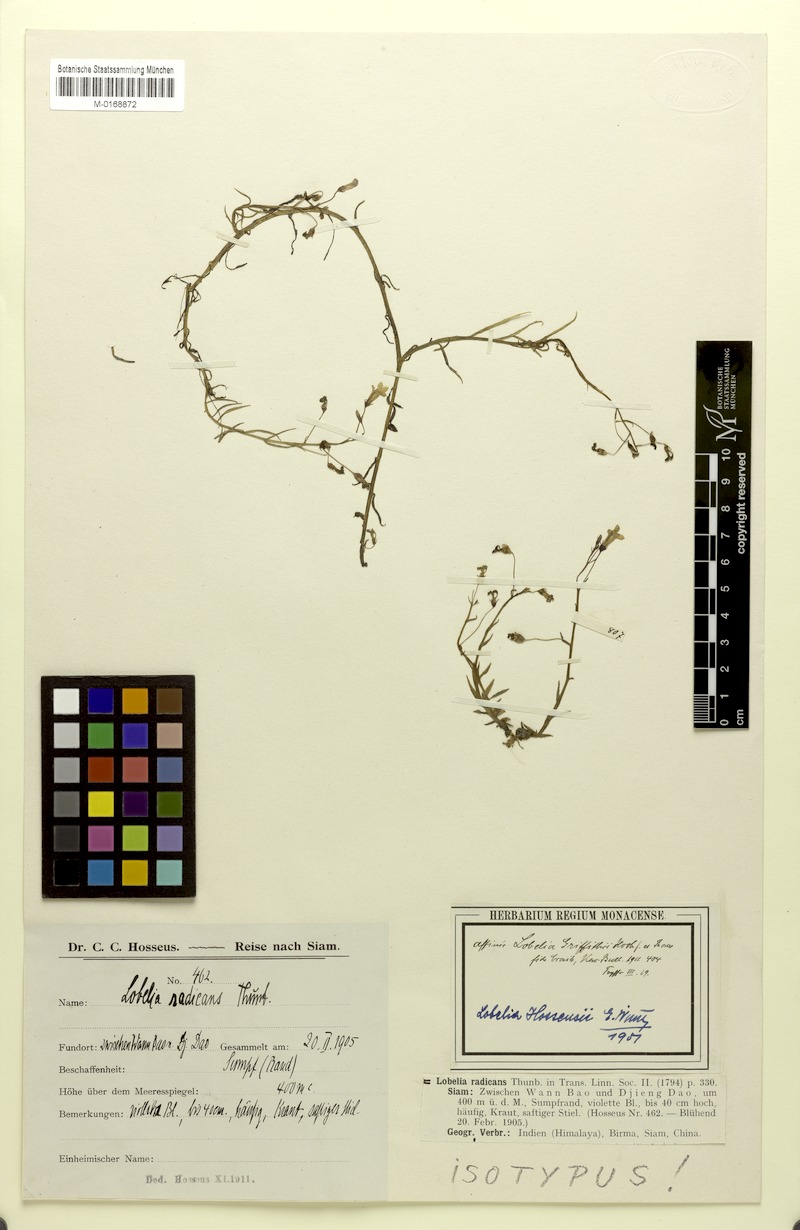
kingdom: Plantae
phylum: Tracheophyta
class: Magnoliopsida
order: Asterales
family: Campanulaceae
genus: Lobelia
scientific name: Lobelia griffithii
